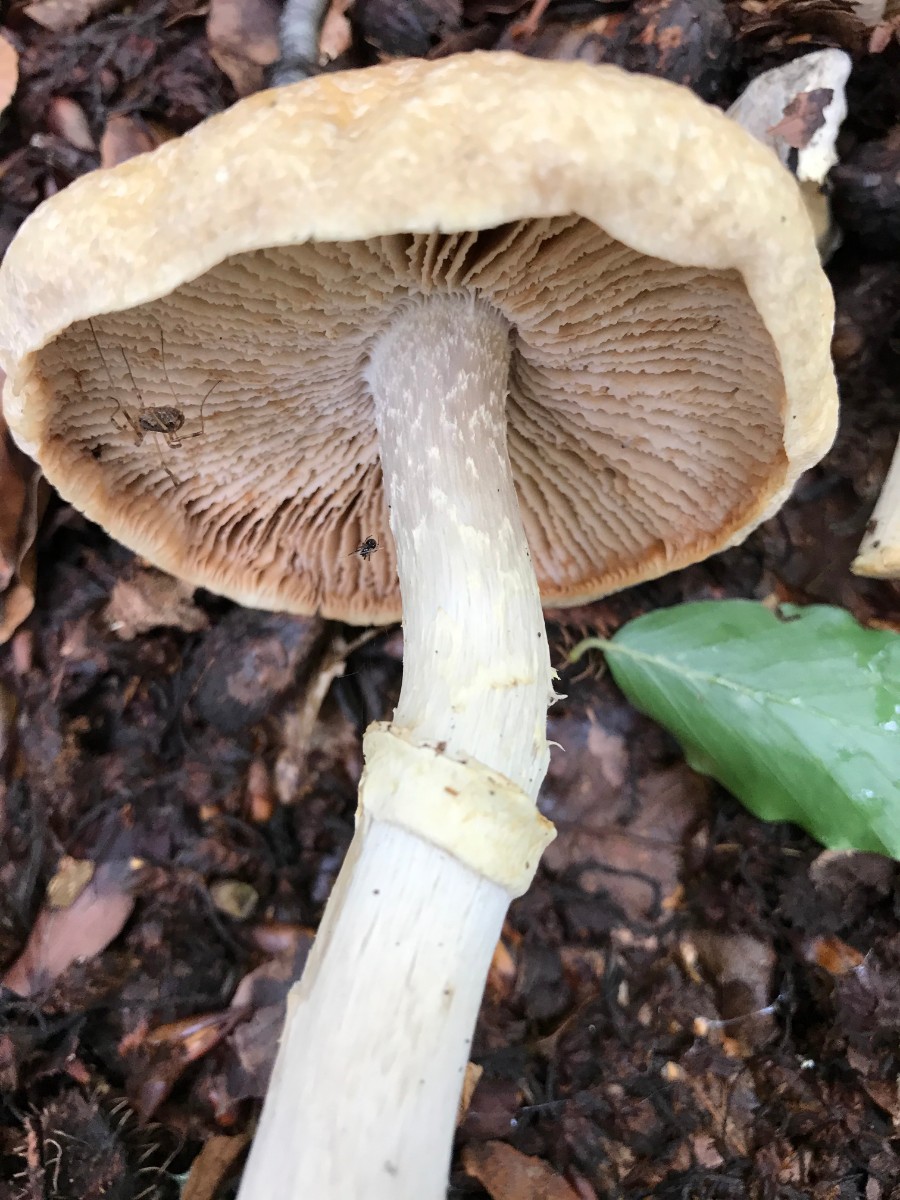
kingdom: Fungi
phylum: Basidiomycota
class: Agaricomycetes
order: Agaricales
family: Cortinariaceae
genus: Cortinarius
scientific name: Cortinarius caperatus
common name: klidhat
